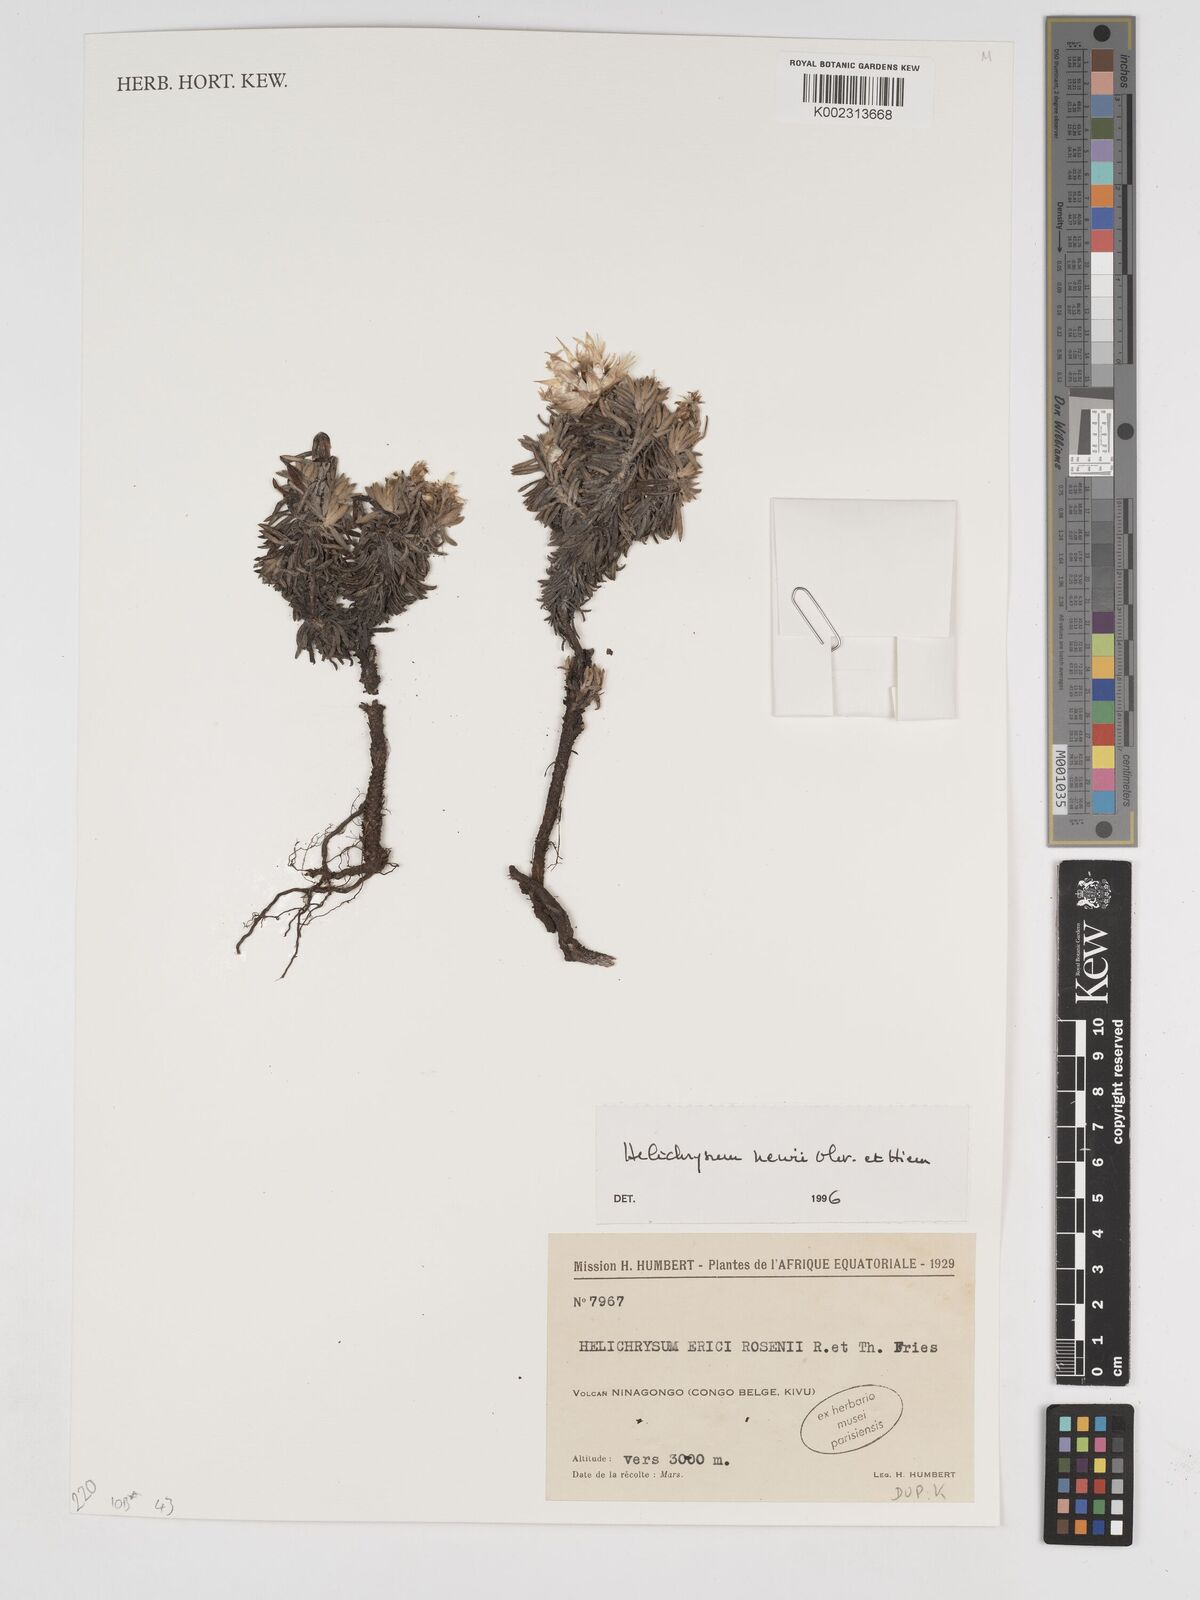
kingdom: Plantae
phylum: Tracheophyta
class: Magnoliopsida
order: Asterales
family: Asteraceae
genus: Helichrysum
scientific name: Helichrysum newii
